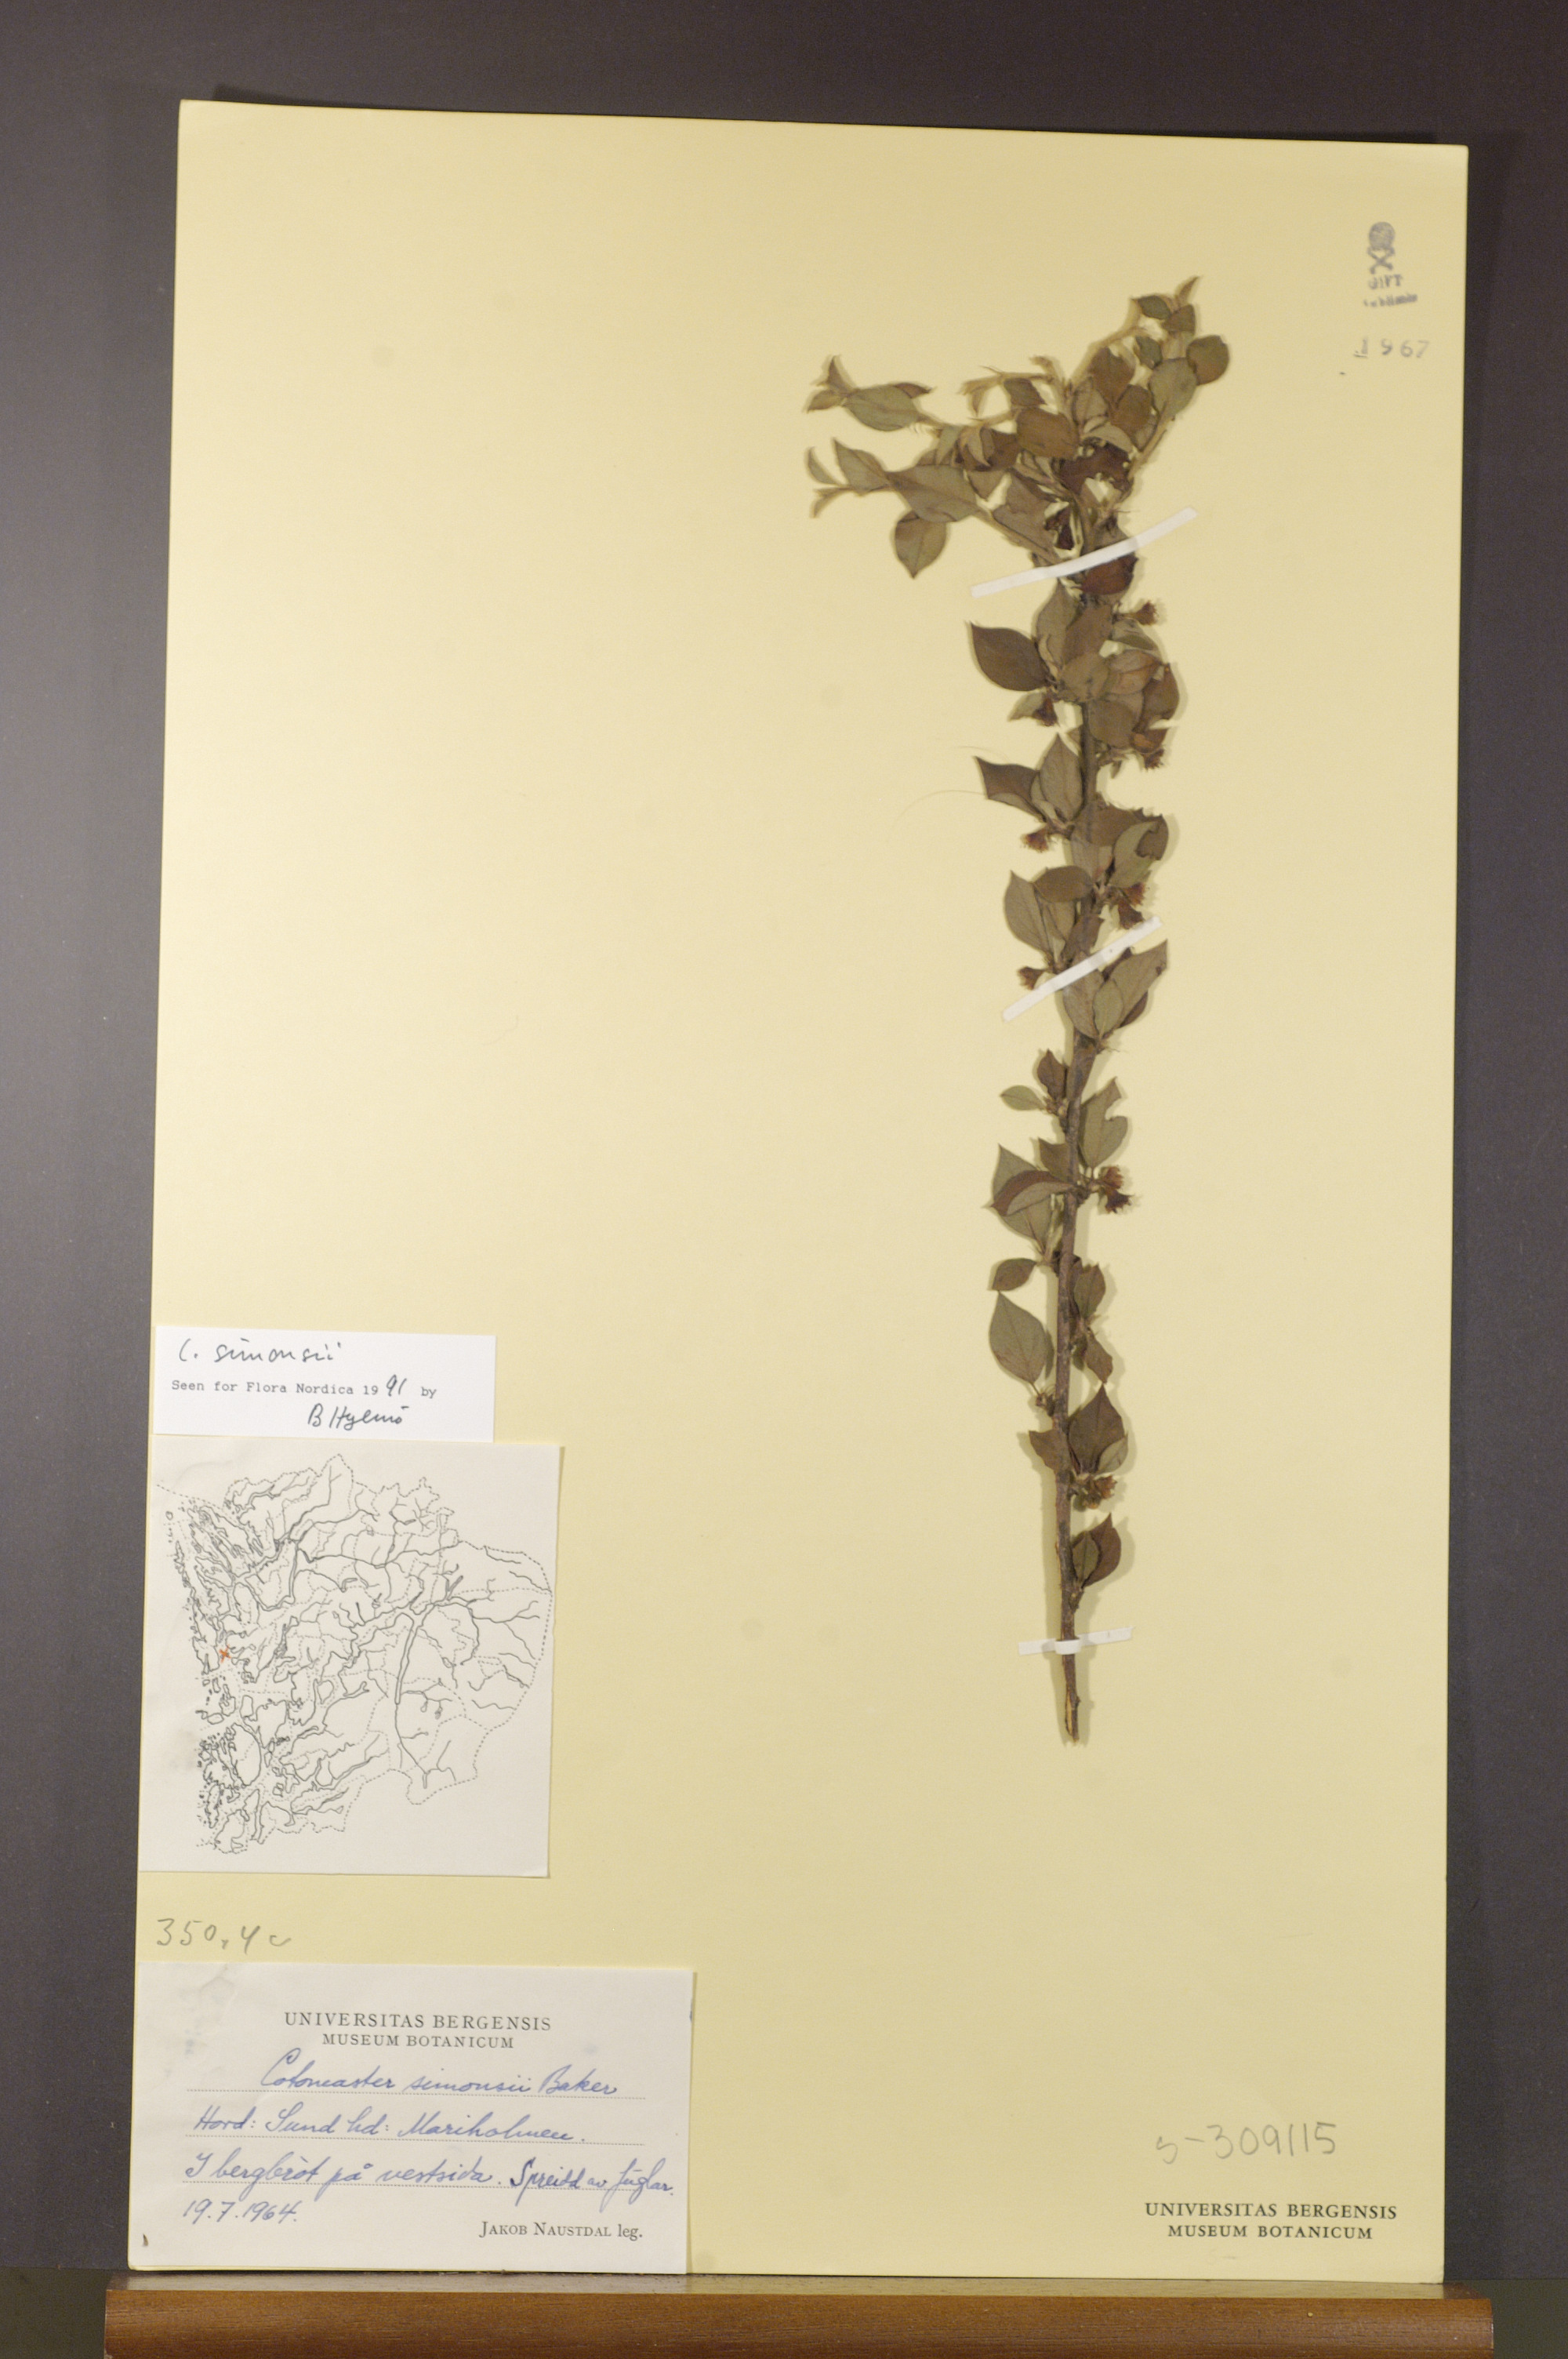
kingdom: Plantae
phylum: Tracheophyta
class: Magnoliopsida
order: Rosales
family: Rosaceae
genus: Cotoneaster
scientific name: Cotoneaster symondsii
